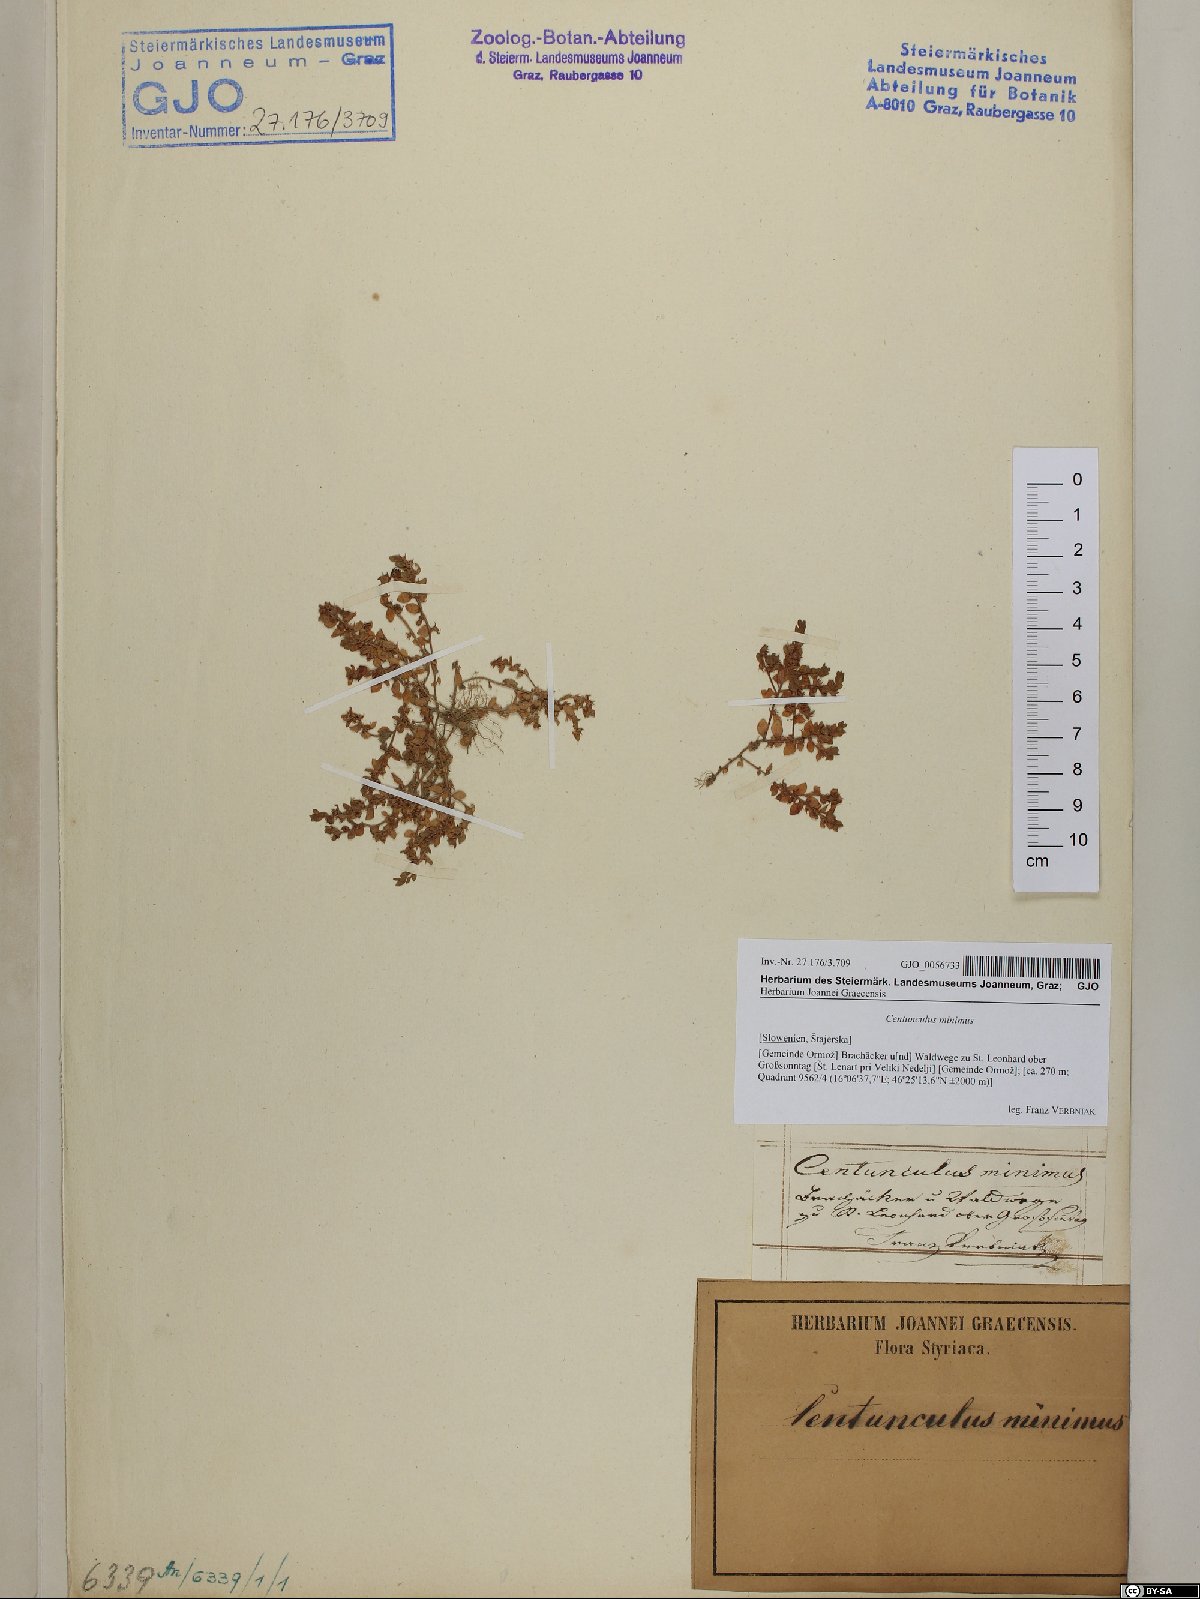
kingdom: Plantae
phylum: Tracheophyta
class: Magnoliopsida
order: Ericales
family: Primulaceae
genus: Lysimachia
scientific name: Lysimachia minima
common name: Chaffweed
